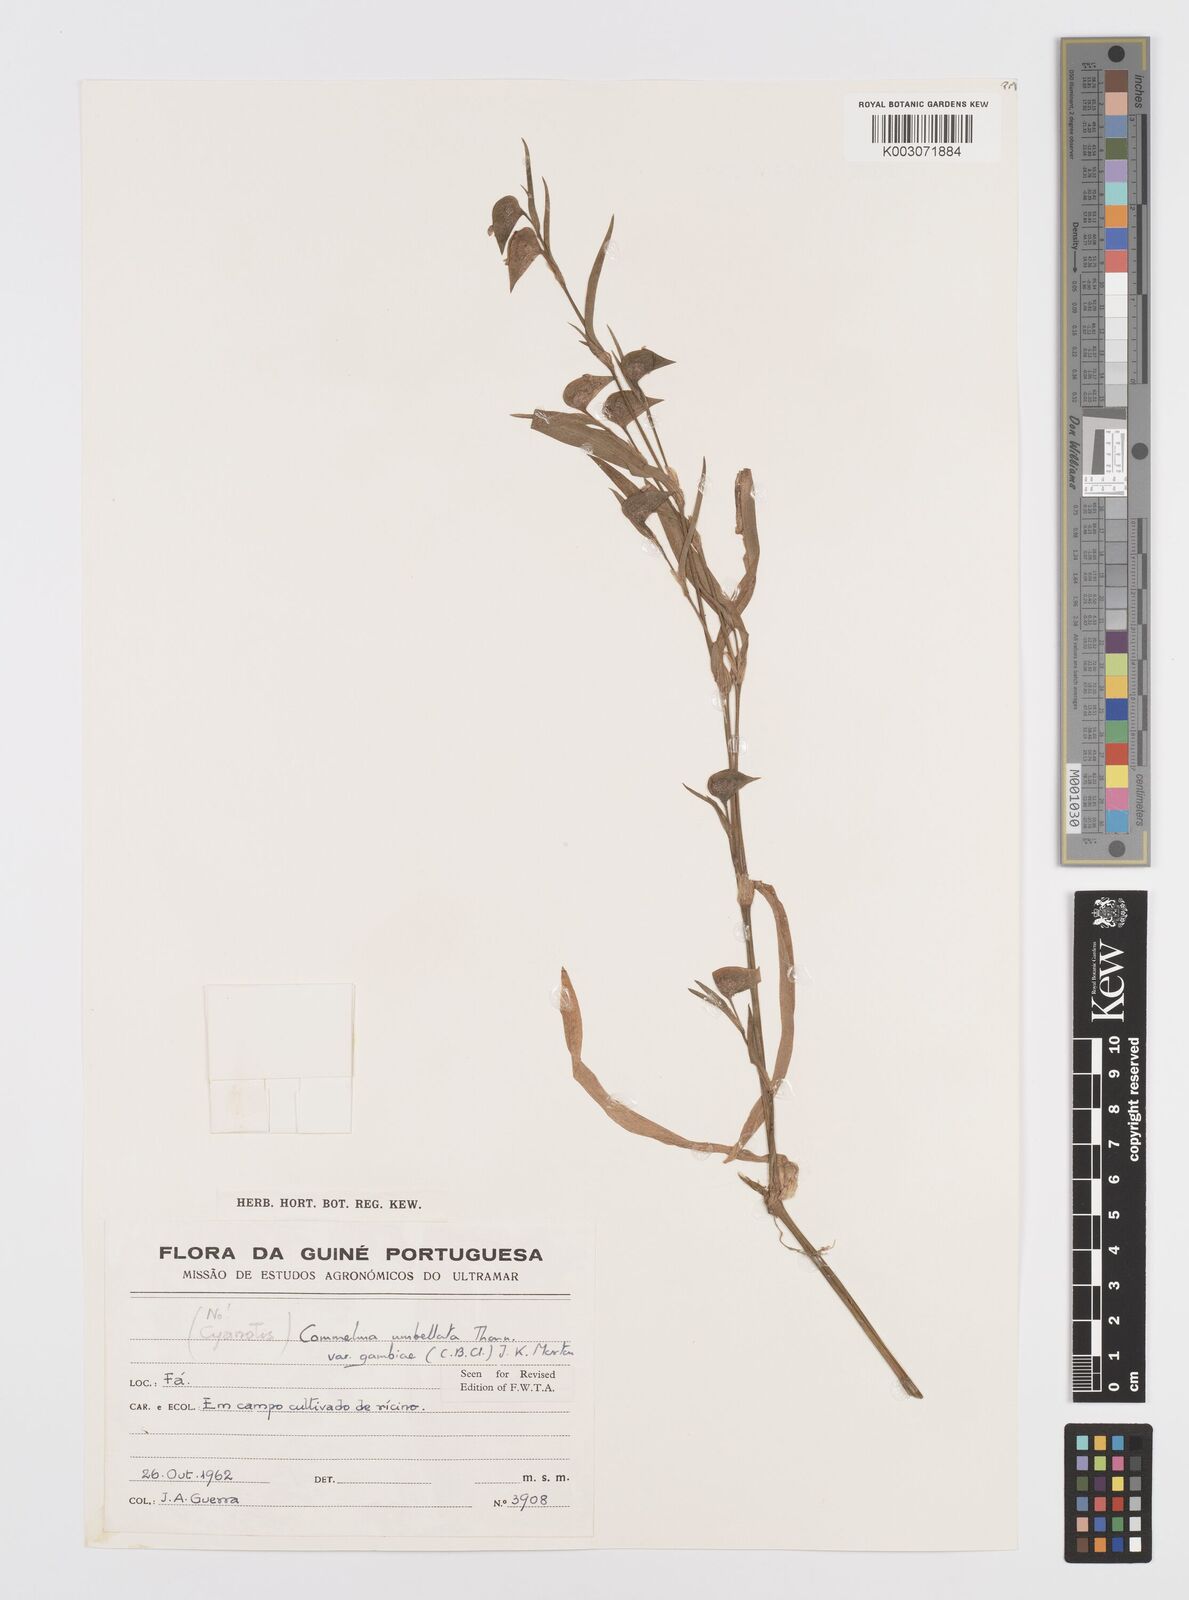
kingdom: Plantae
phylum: Tracheophyta
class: Liliopsida
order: Commelinales
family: Commelinaceae
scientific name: Commelinaceae
